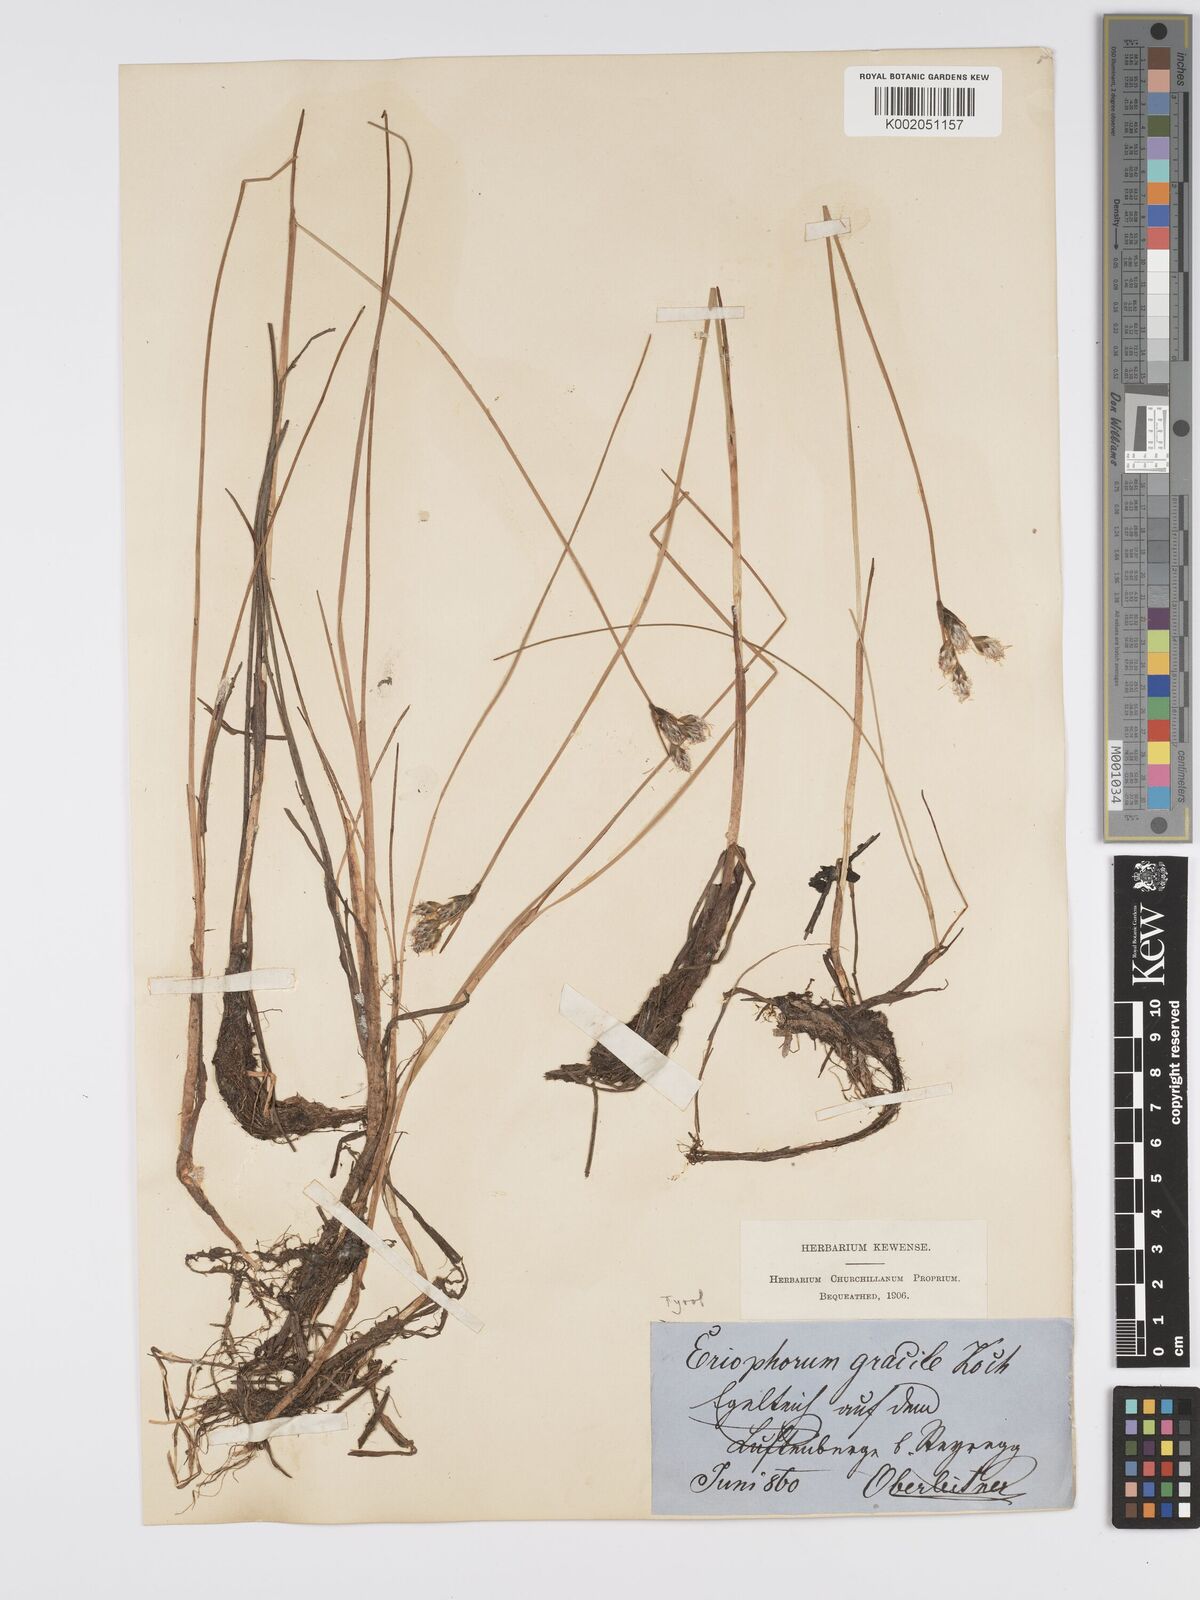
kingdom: Plantae
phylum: Tracheophyta
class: Liliopsida
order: Poales
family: Cyperaceae
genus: Eriophorum
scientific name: Eriophorum gracile
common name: Slender cottongrass
